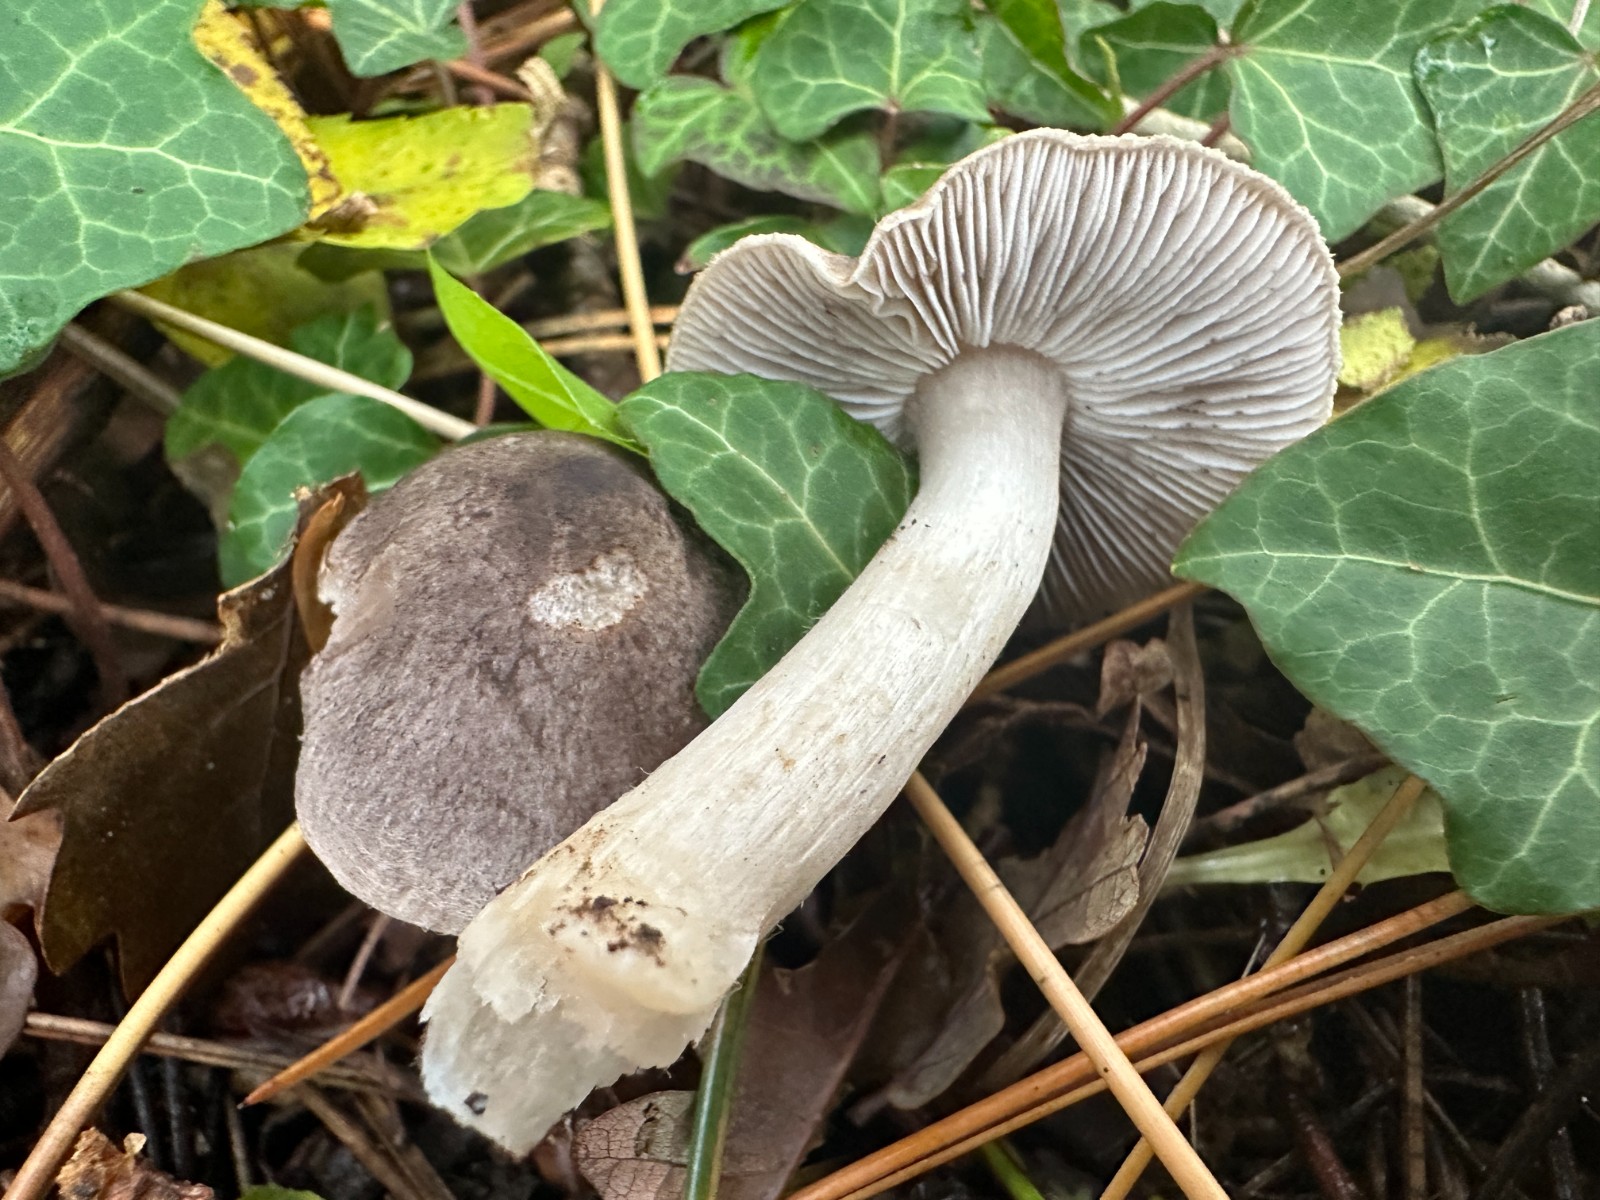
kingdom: Fungi
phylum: Basidiomycota
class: Agaricomycetes
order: Agaricales
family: Tricholomataceae
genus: Tricholoma
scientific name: Tricholoma terreum
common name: jordfarvet ridderhat
